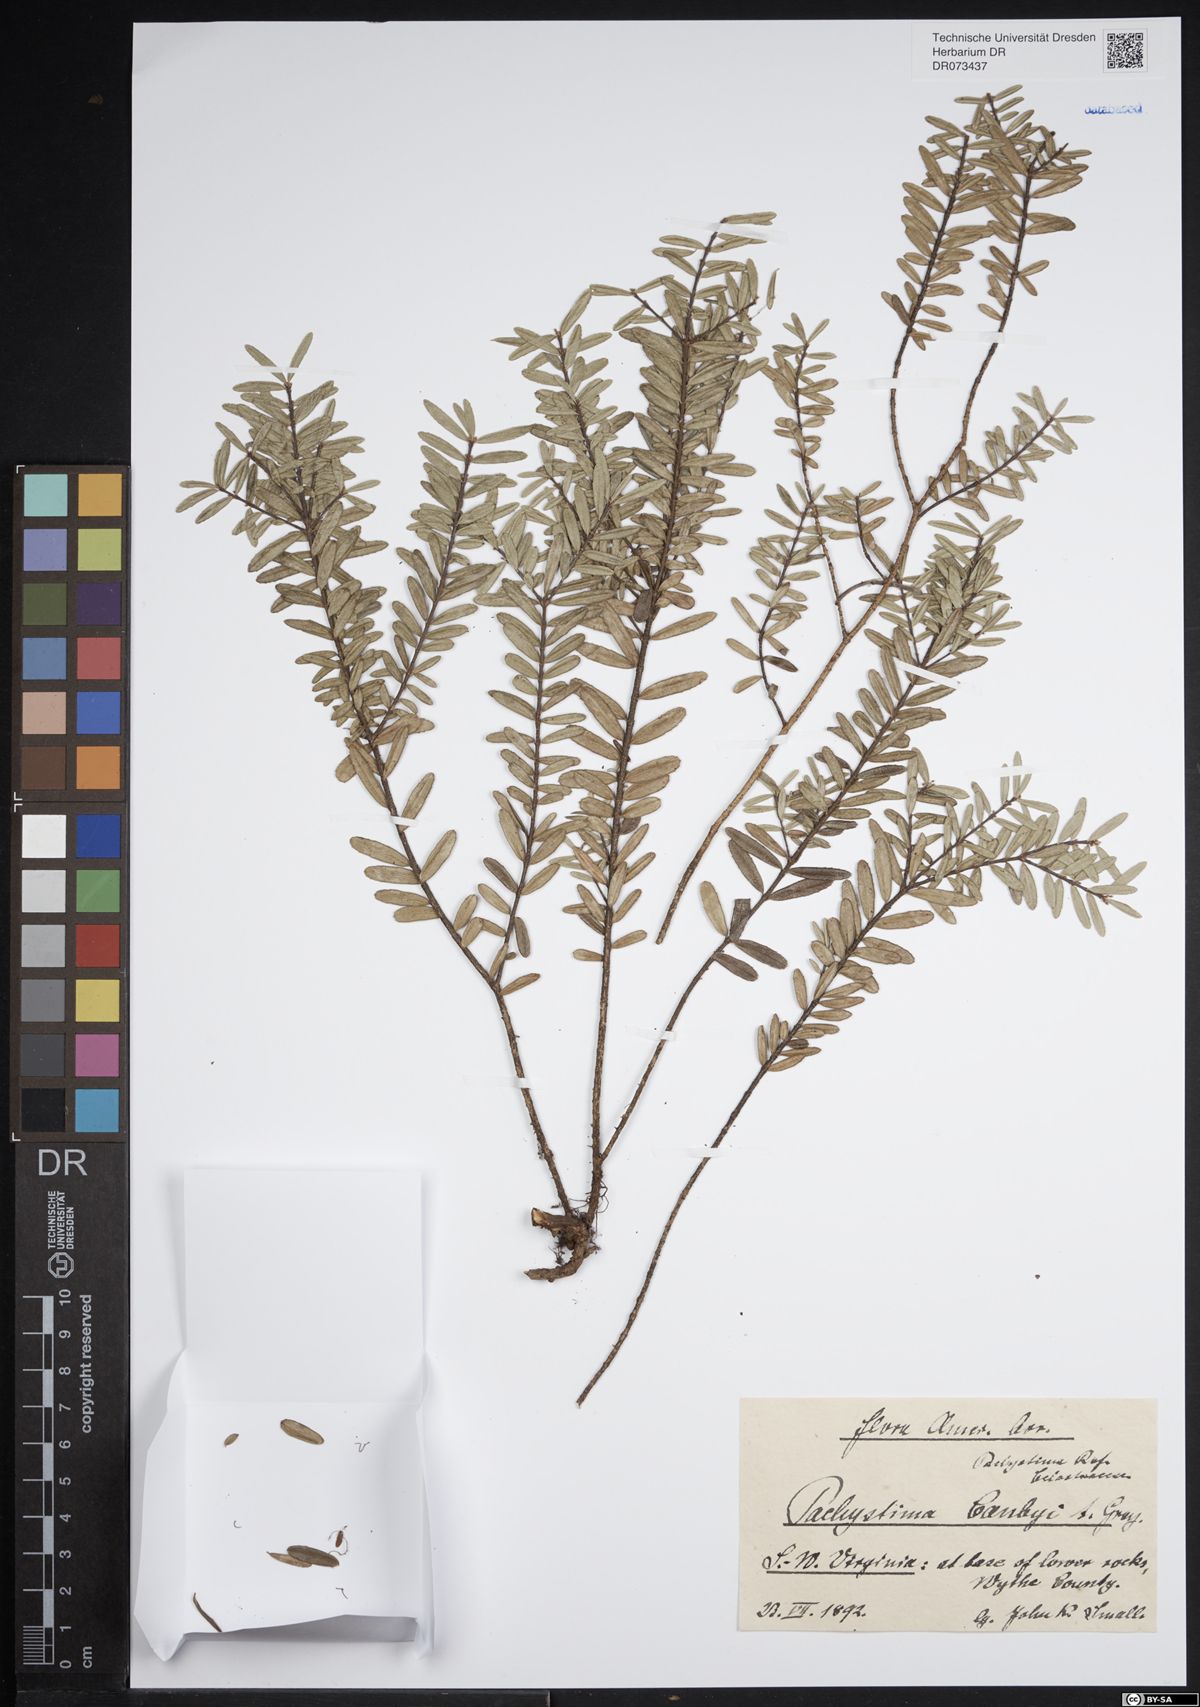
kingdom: Plantae
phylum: Tracheophyta
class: Magnoliopsida
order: Celastrales
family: Celastraceae
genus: Paxistima
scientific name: Paxistima
